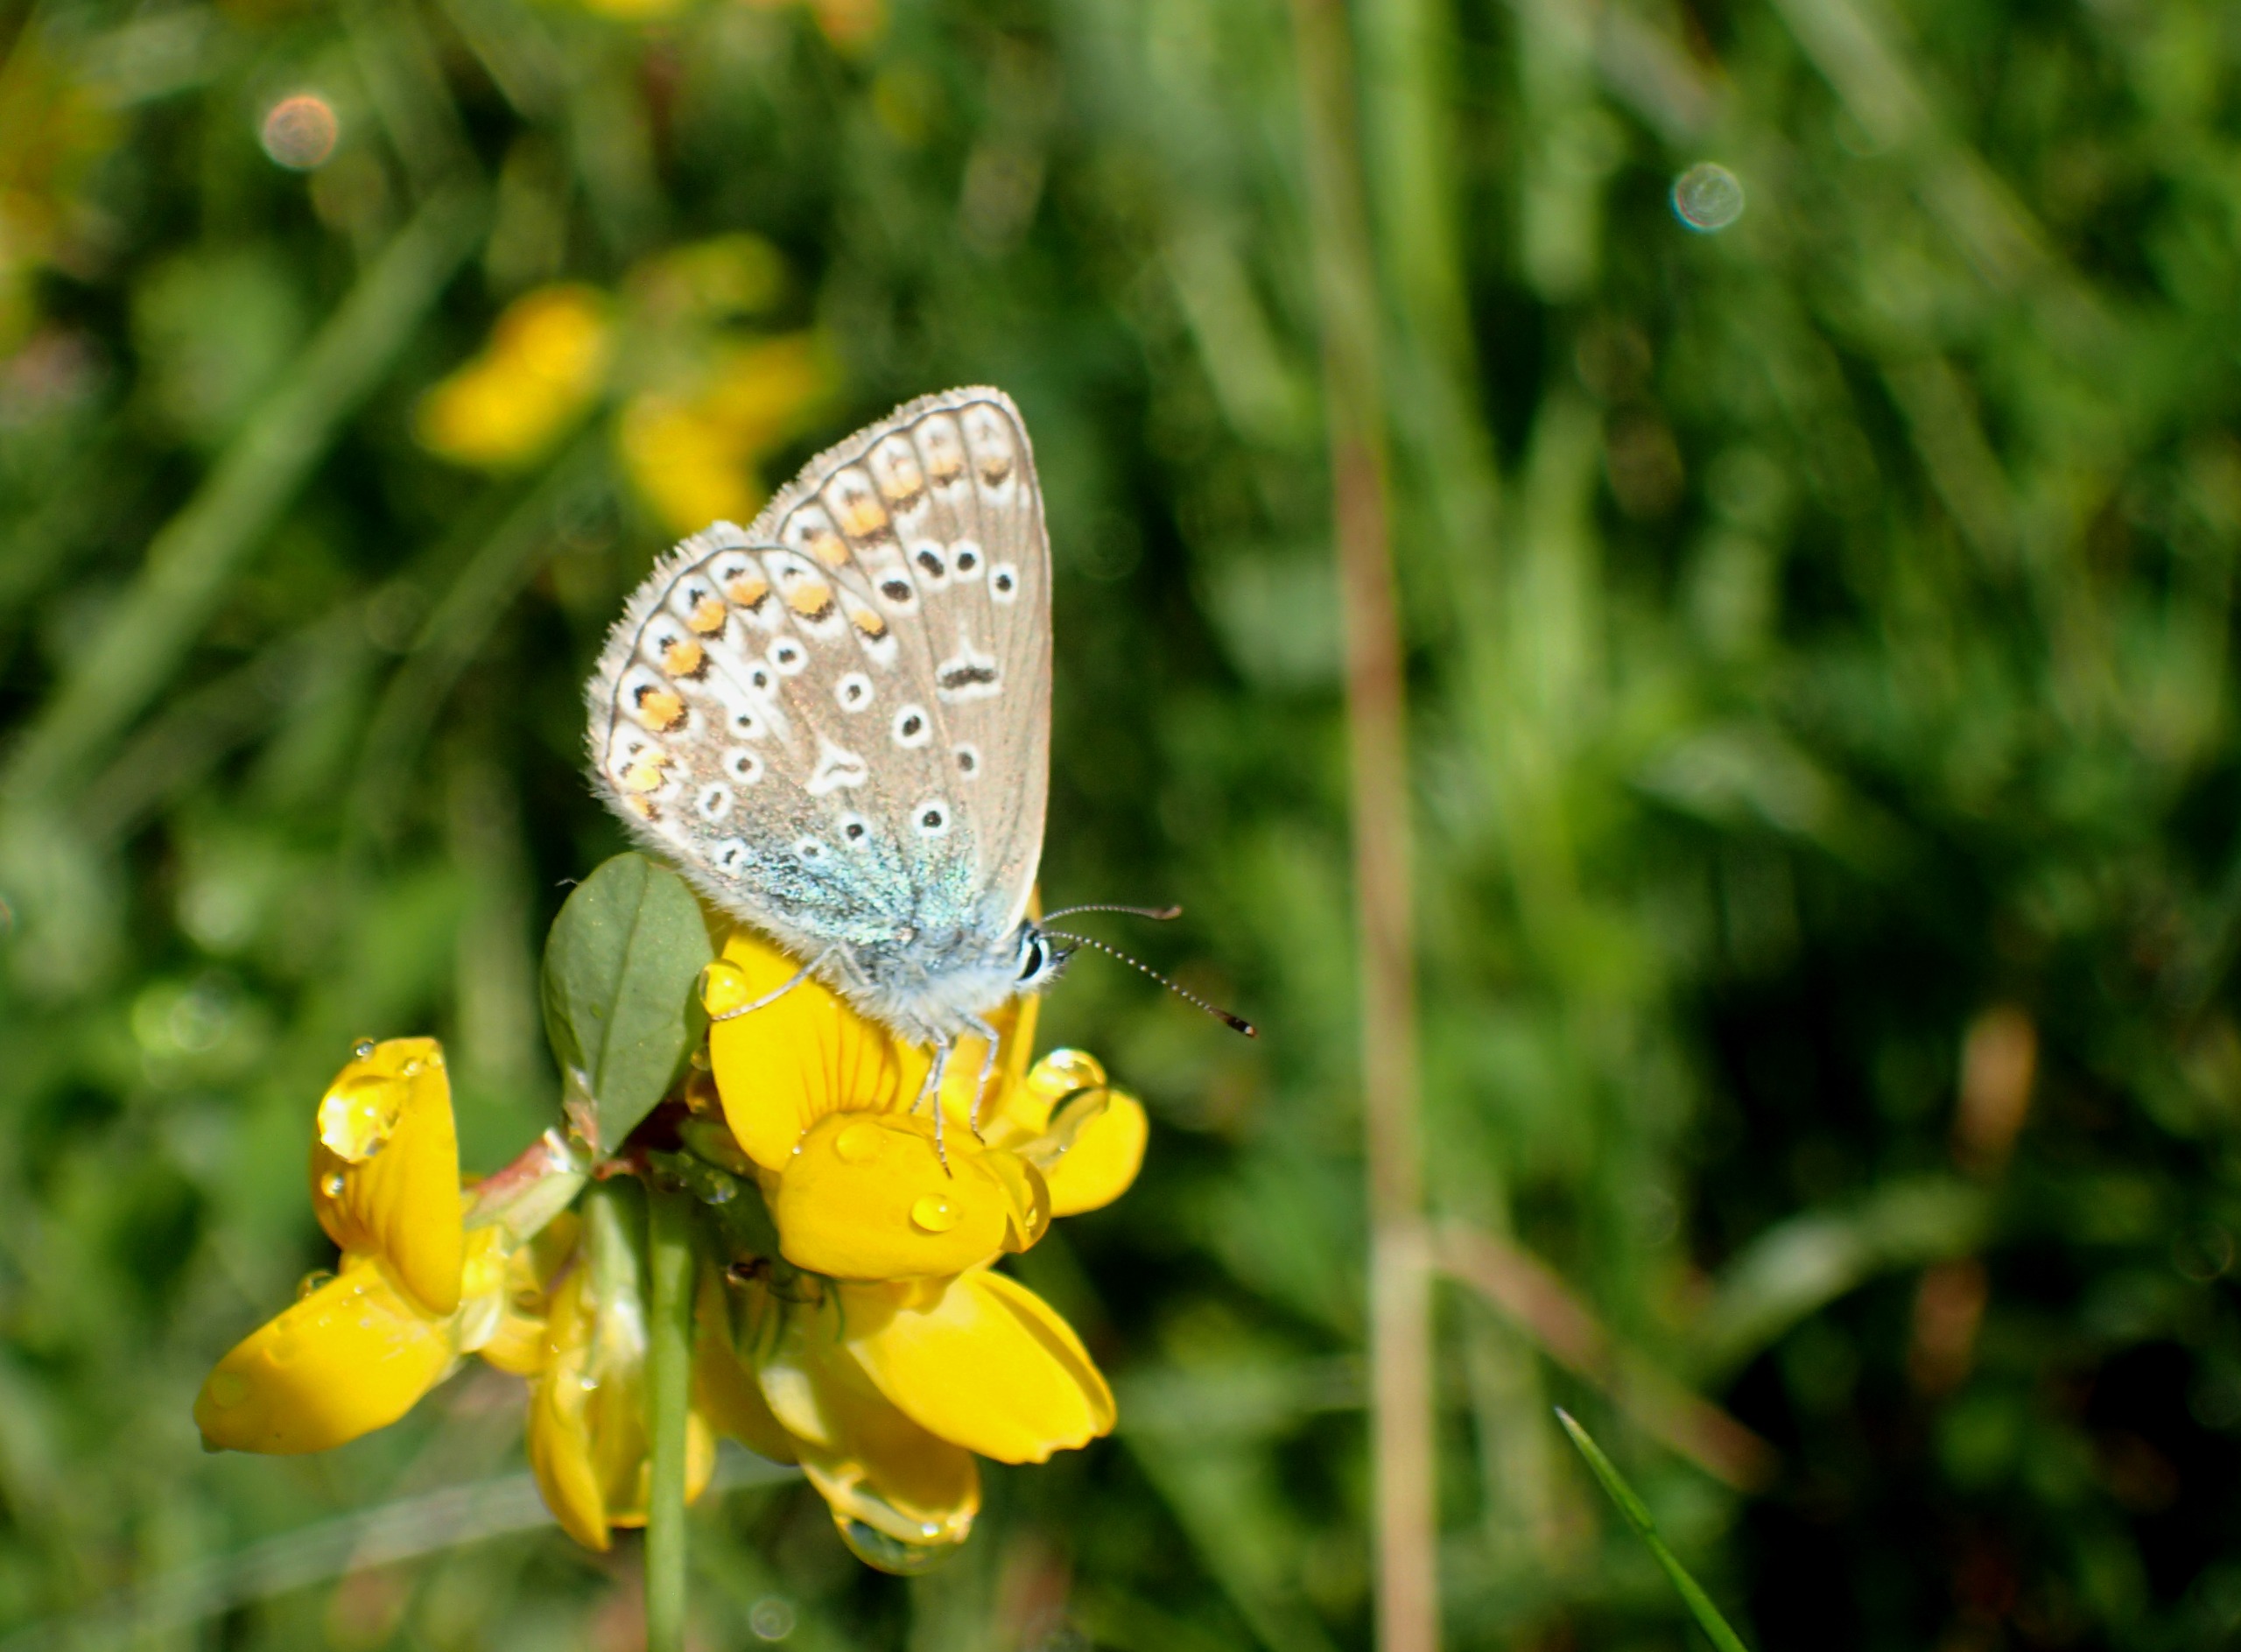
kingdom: Animalia
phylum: Arthropoda
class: Insecta
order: Lepidoptera
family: Lycaenidae
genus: Polyommatus
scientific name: Polyommatus icarus
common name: Almindelig blåfugl
